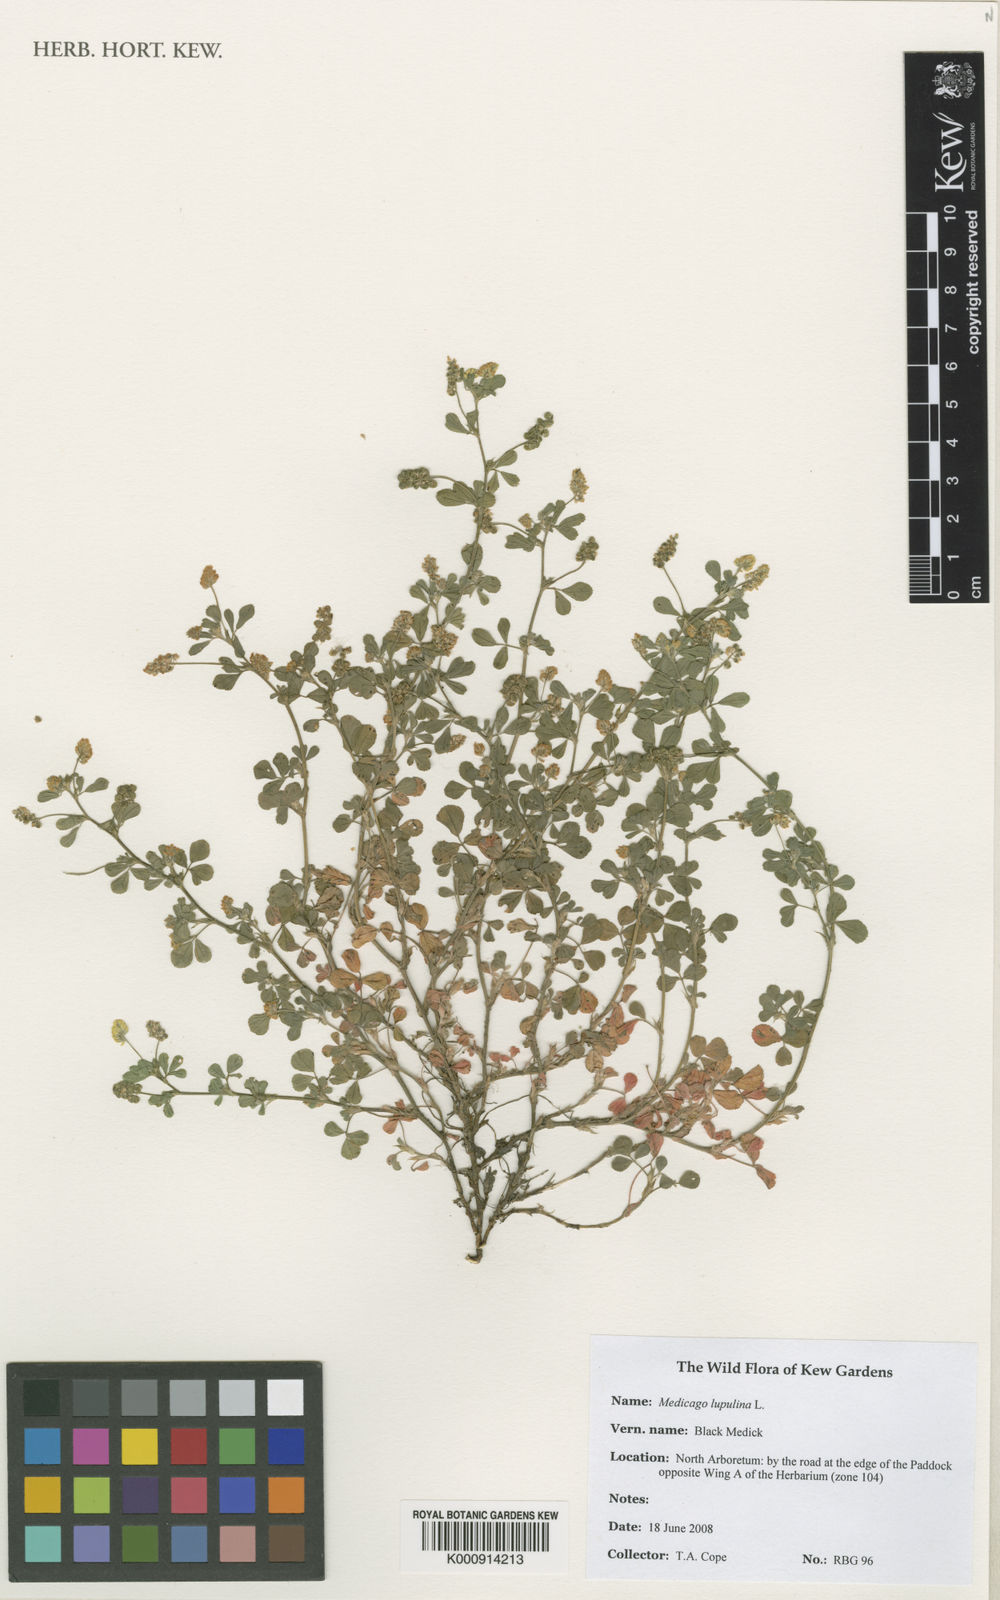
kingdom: Plantae
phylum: Tracheophyta
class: Magnoliopsida
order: Fabales
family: Fabaceae
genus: Medicago
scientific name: Medicago lupulina
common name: Black medick
